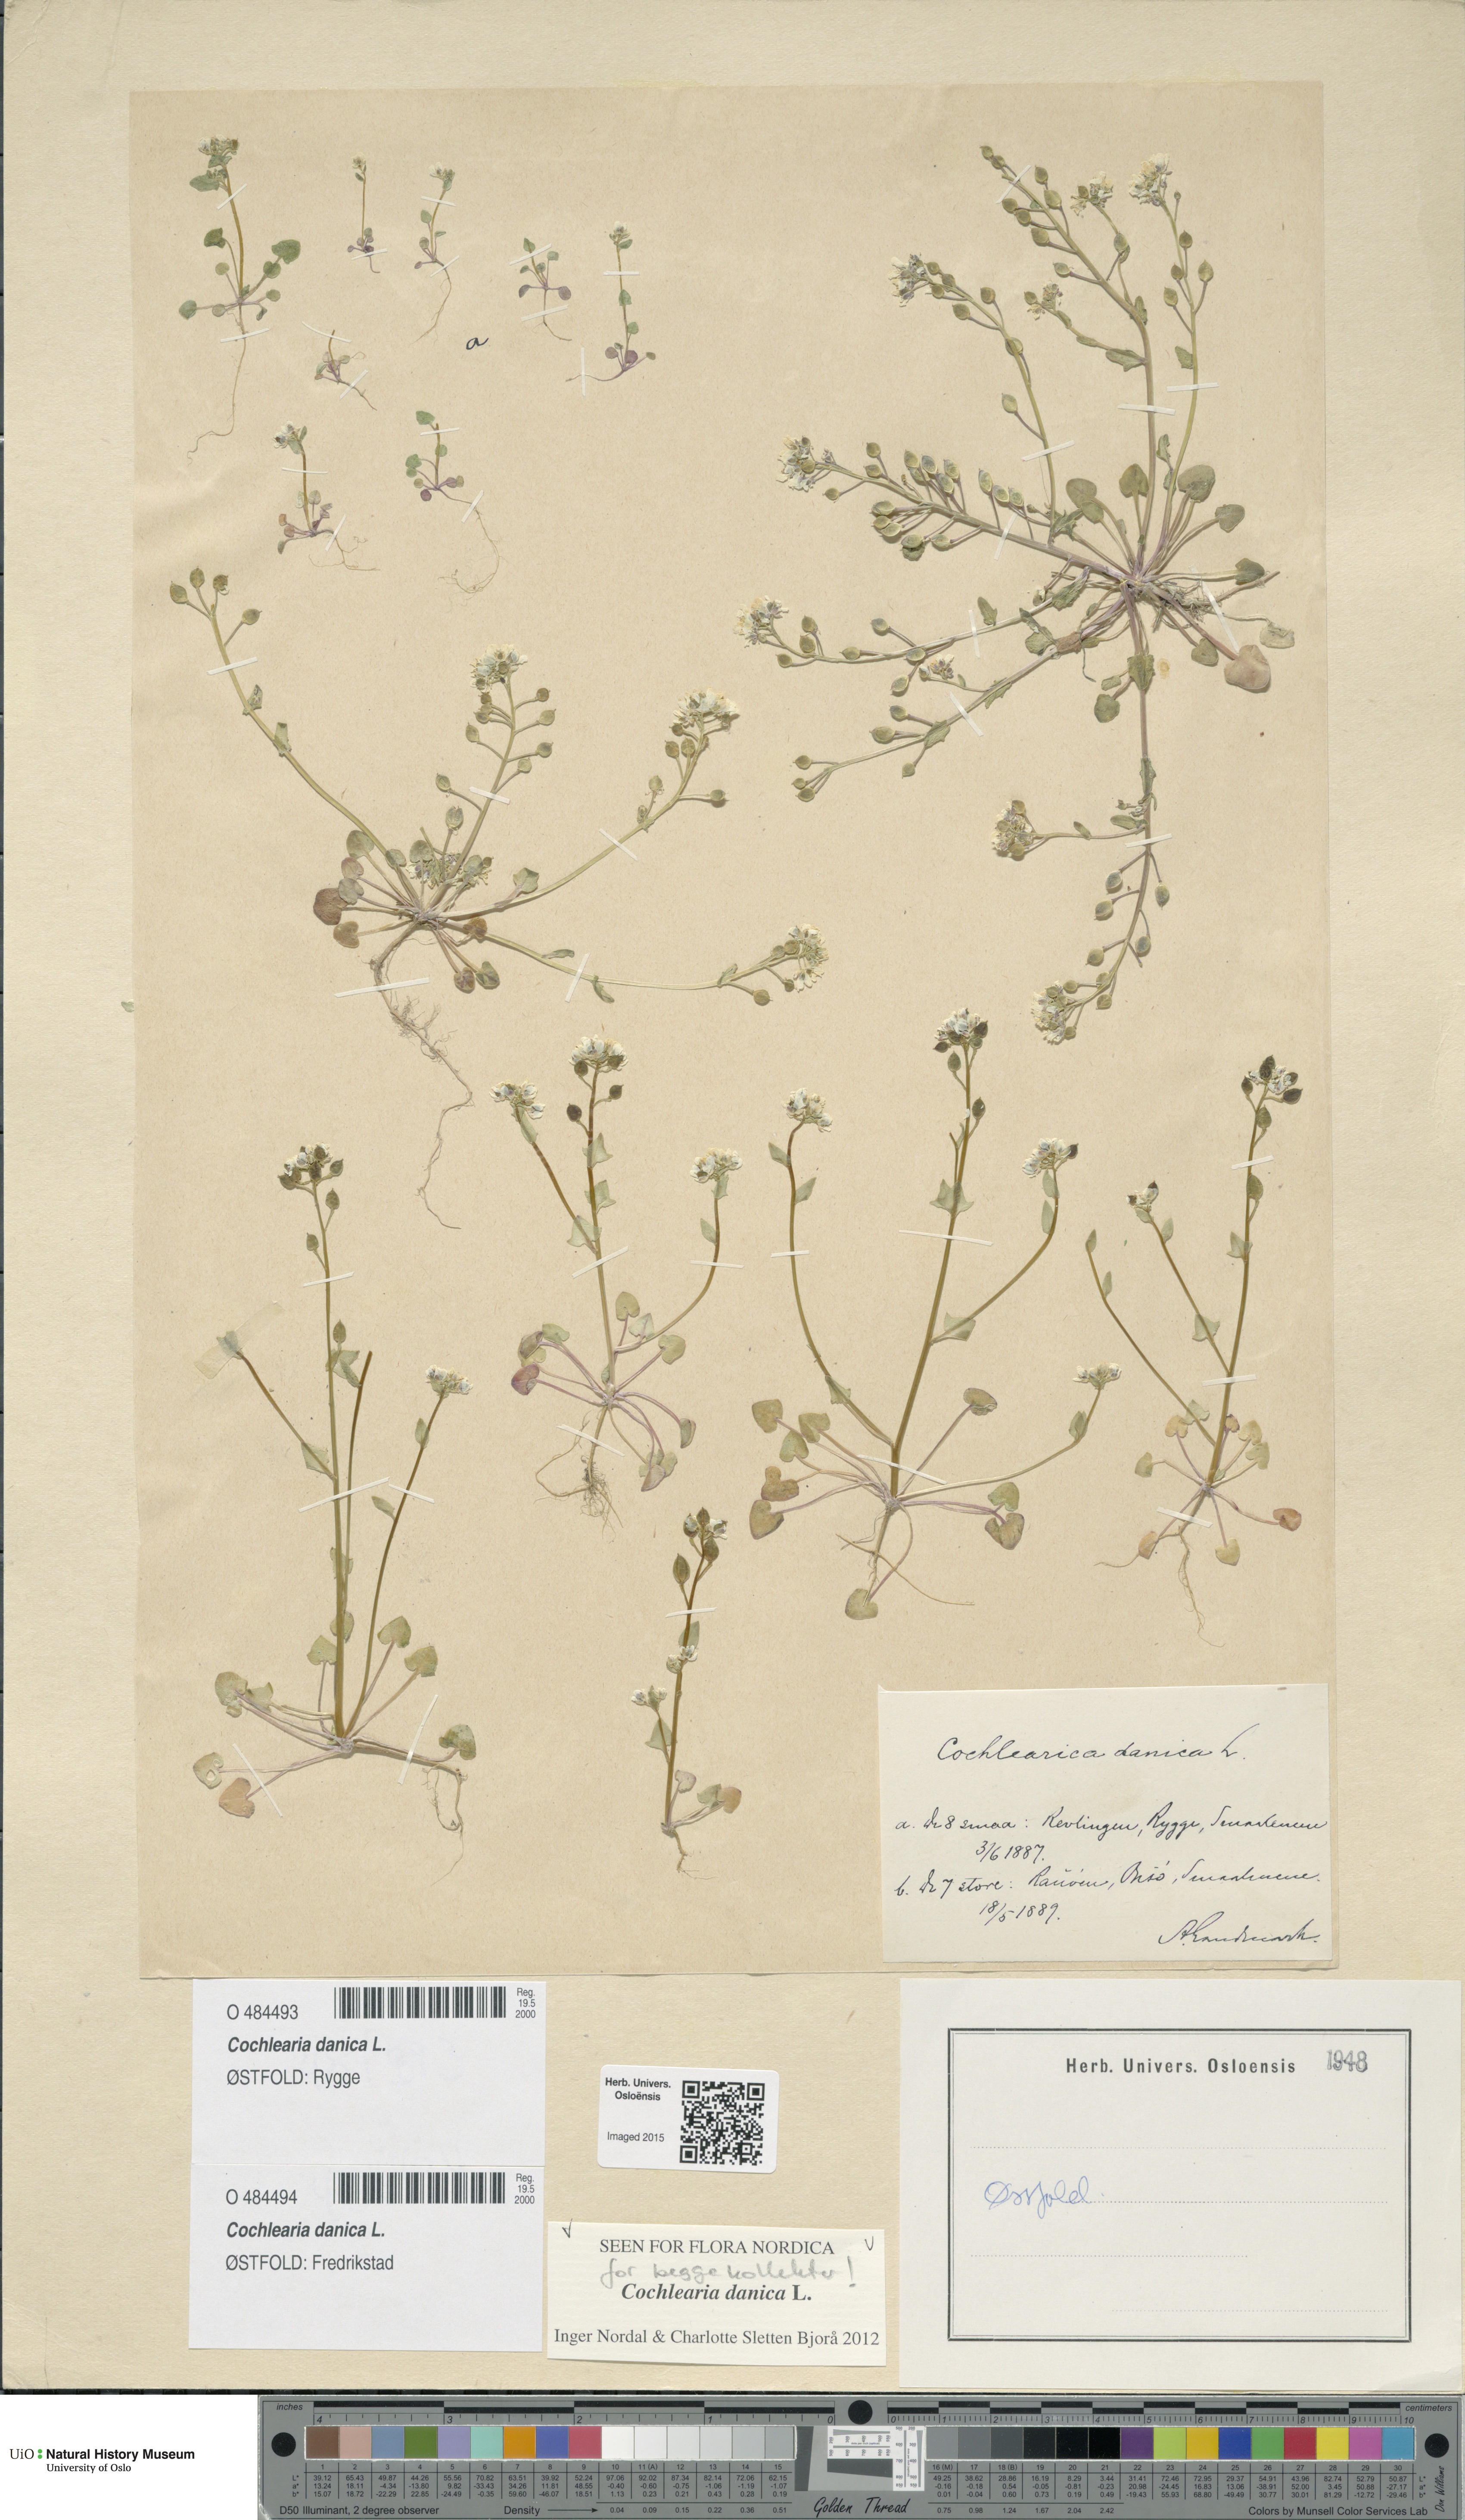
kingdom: Plantae
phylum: Tracheophyta
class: Magnoliopsida
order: Brassicales
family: Brassicaceae
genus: Cochlearia
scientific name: Cochlearia danica
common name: Early scurvygrass
